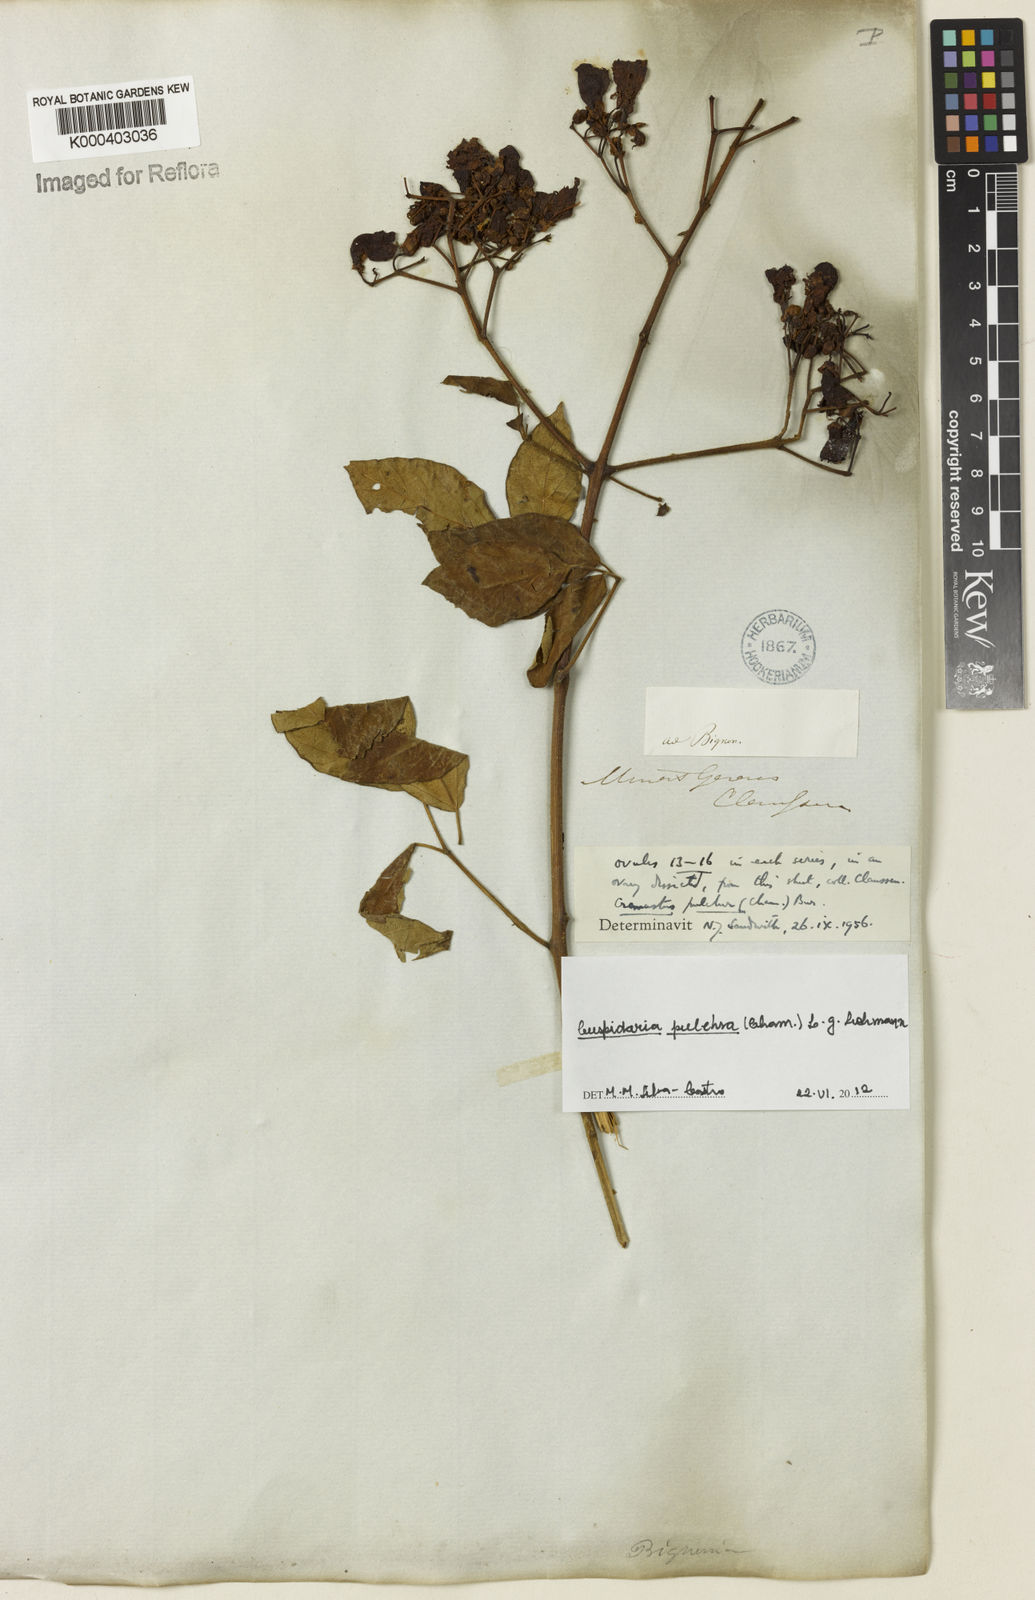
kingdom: Plantae
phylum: Tracheophyta
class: Magnoliopsida
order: Lamiales
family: Bignoniaceae
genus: Cuspidaria
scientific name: Cuspidaria pulchra
